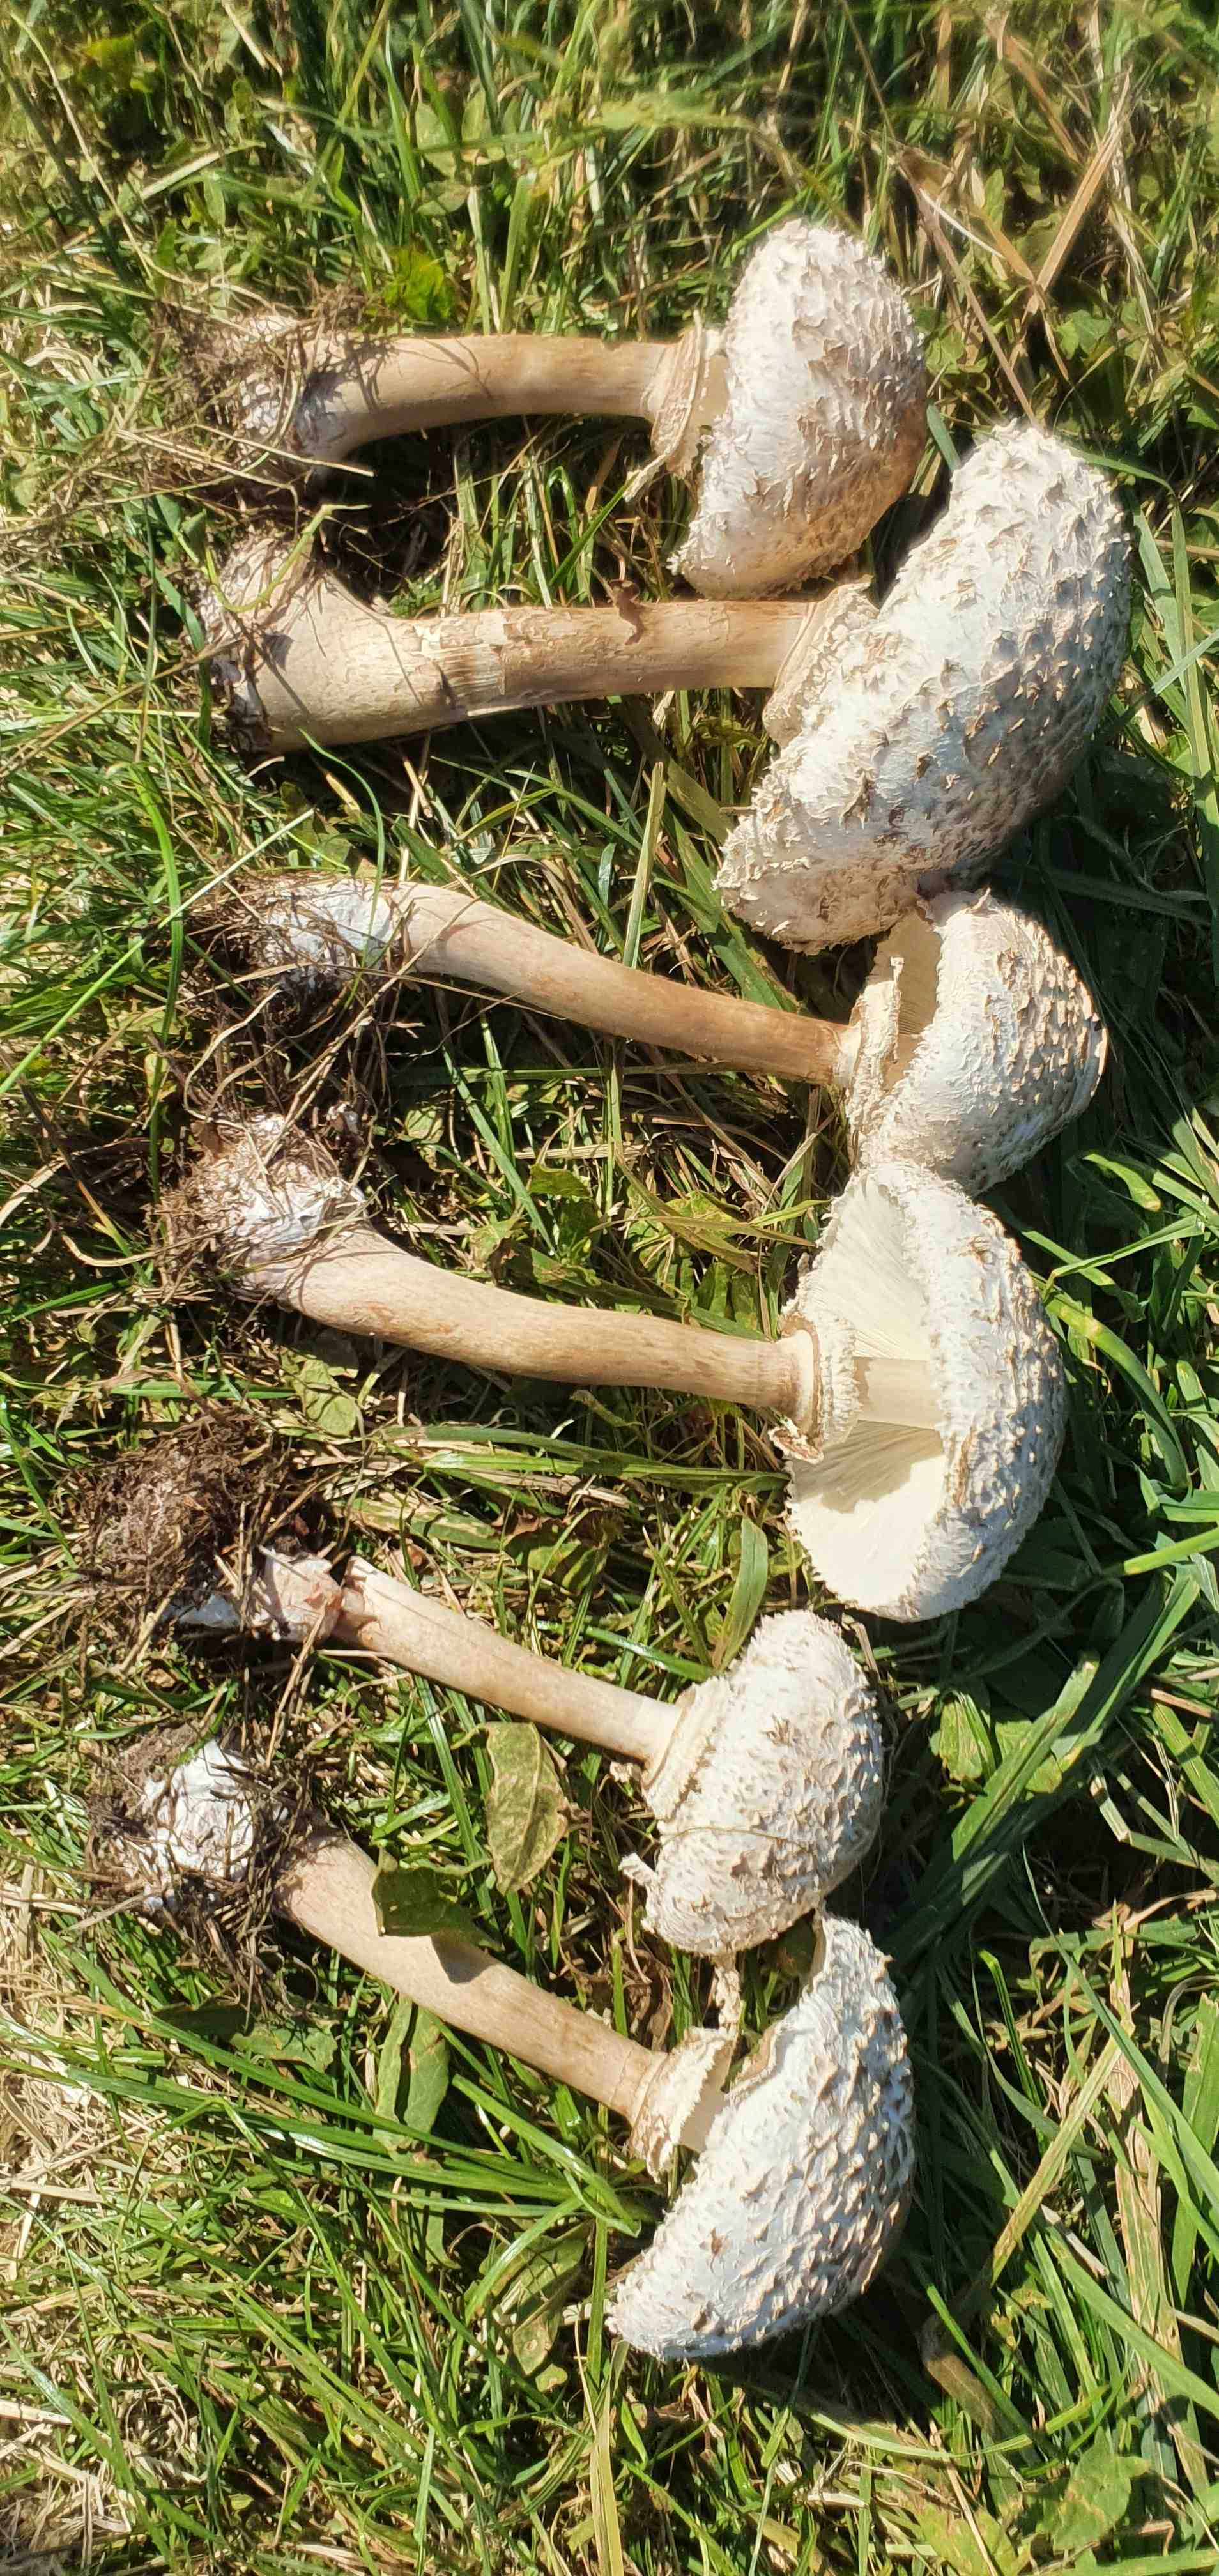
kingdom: Fungi
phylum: Basidiomycota
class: Agaricomycetes
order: Agaricales
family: Agaricaceae
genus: Chlorophyllum
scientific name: Chlorophyllum rhacodes
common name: ægte rabarberhat
